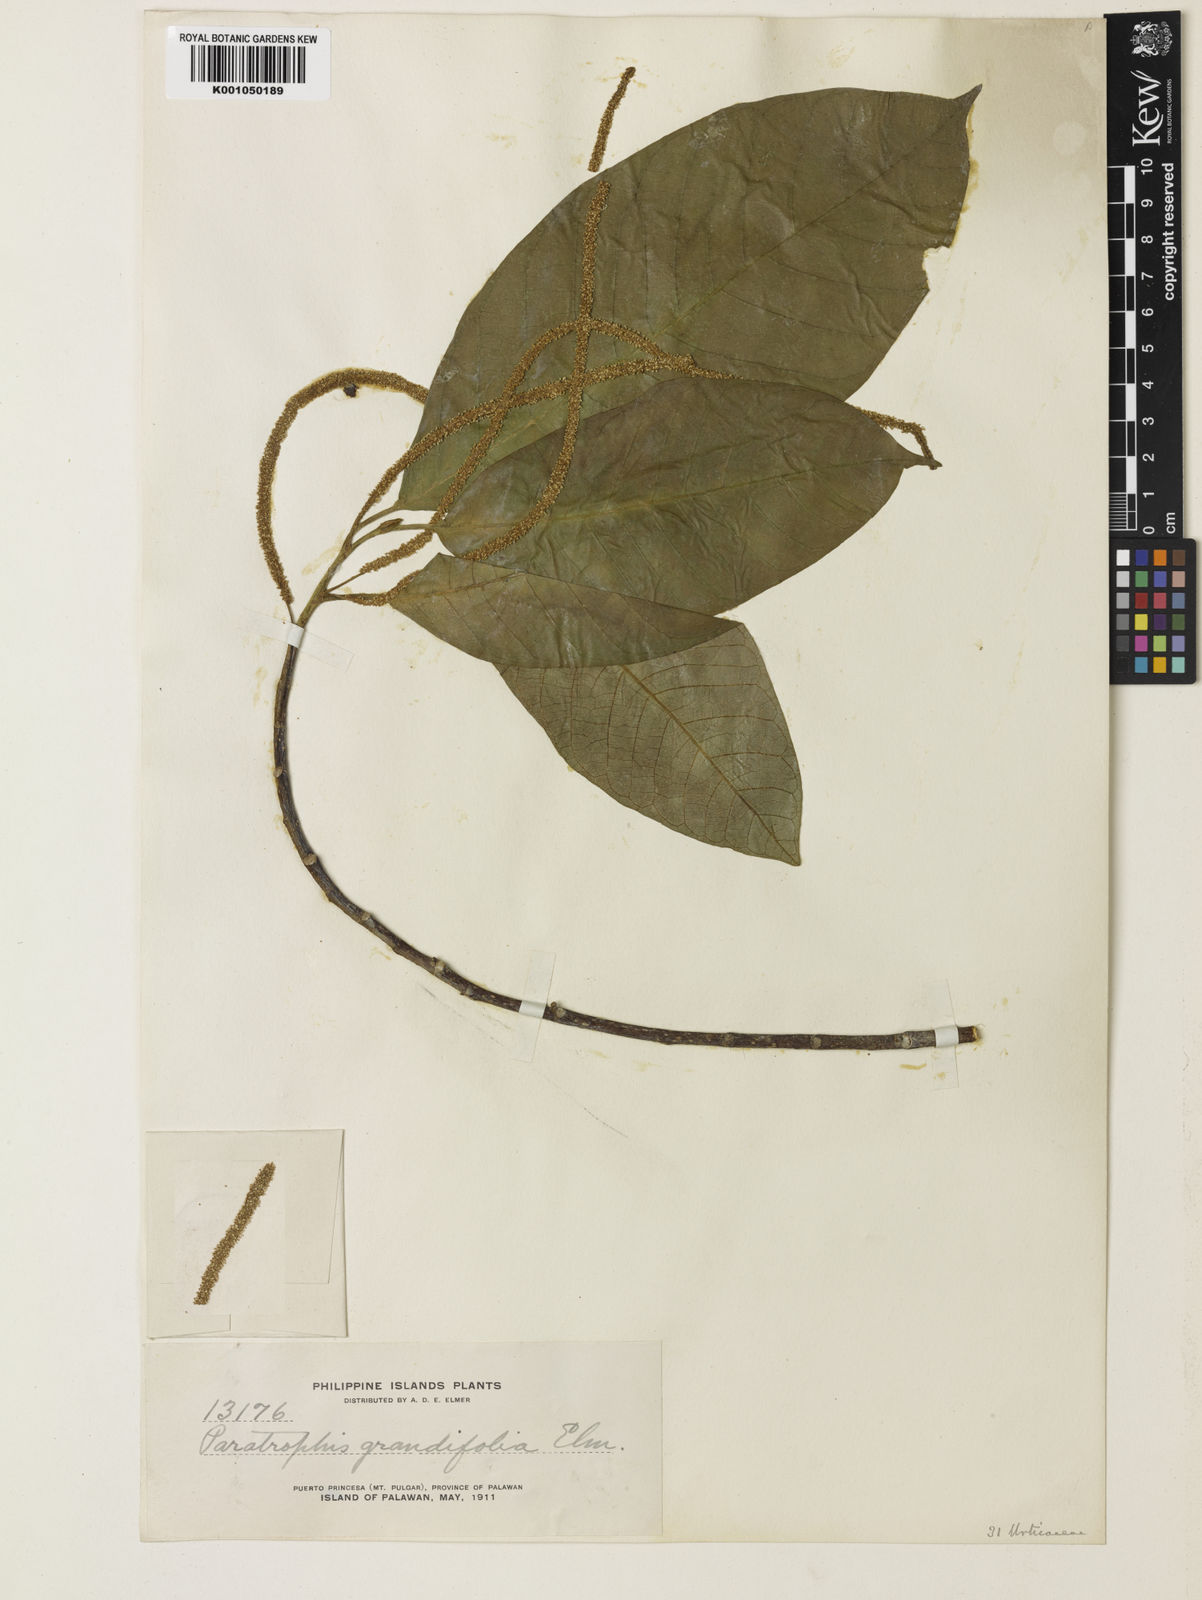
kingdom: Plantae
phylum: Tracheophyta
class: Magnoliopsida
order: Rosales
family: Moraceae
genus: Paratrophis
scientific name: Paratrophis philippinensis
